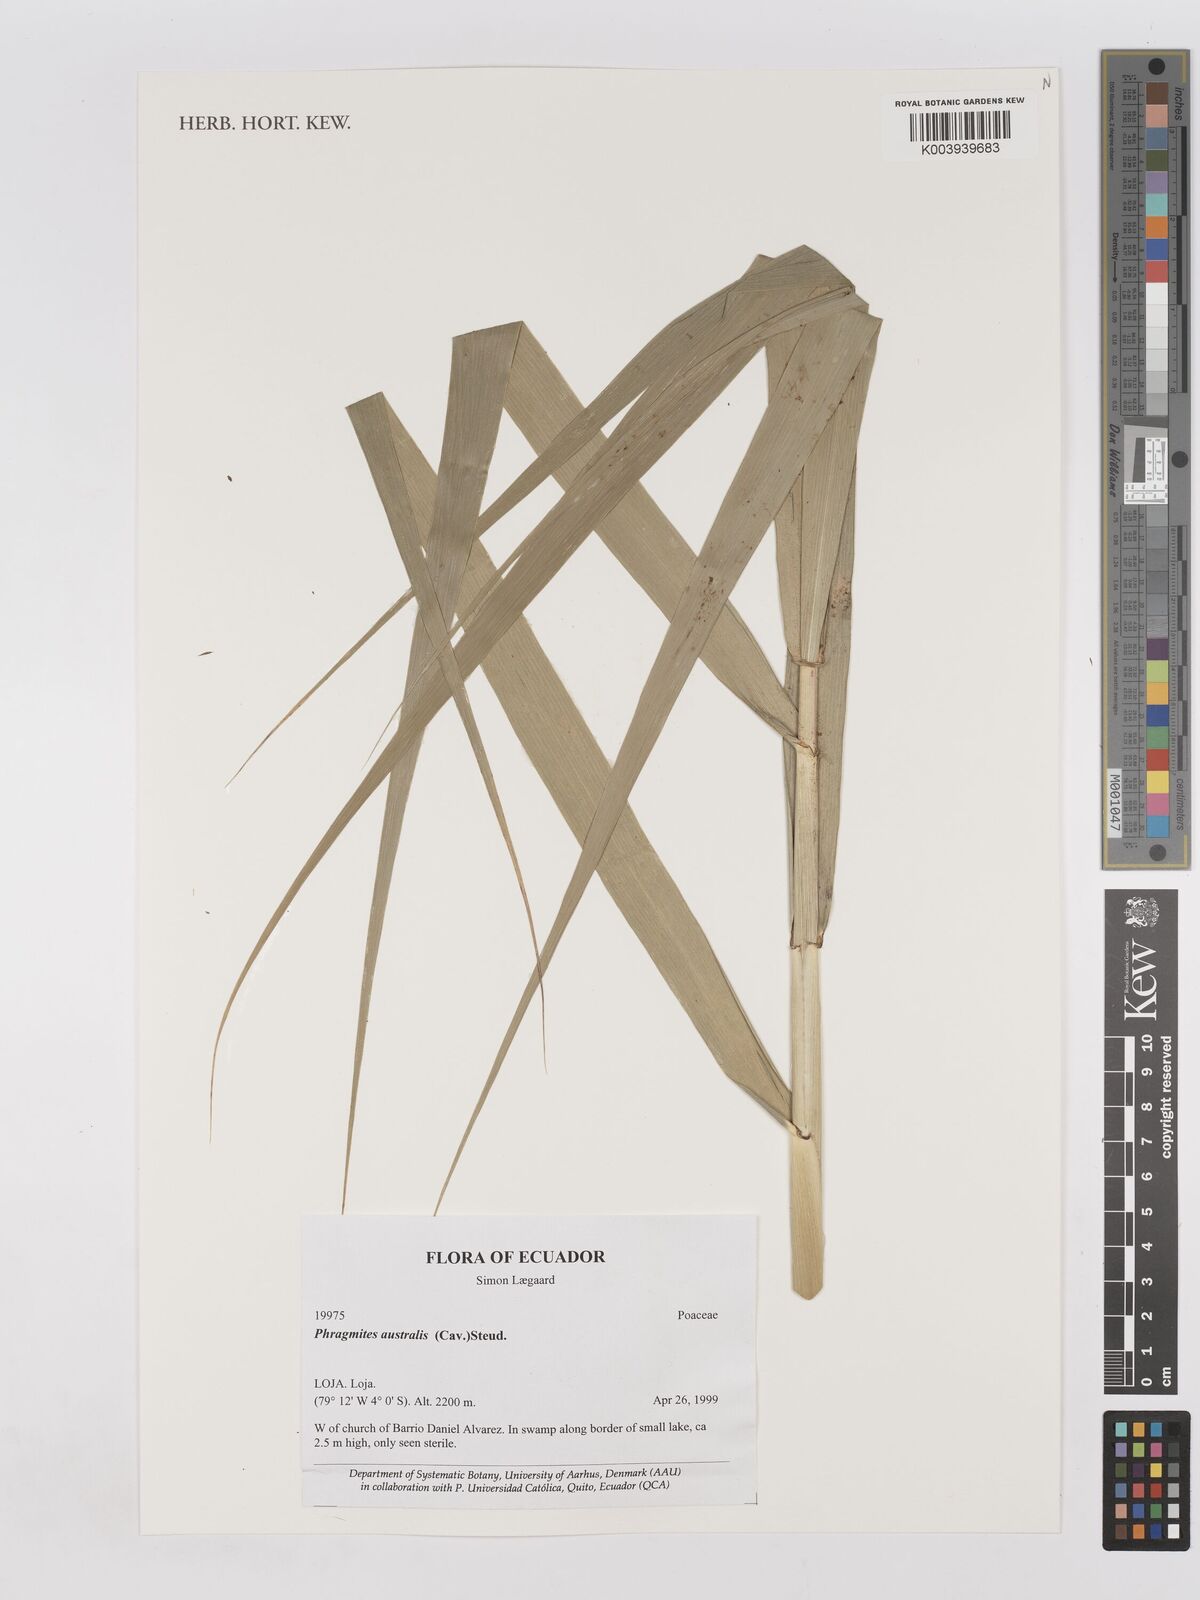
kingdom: Plantae
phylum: Tracheophyta
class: Liliopsida
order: Poales
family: Poaceae
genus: Phragmites
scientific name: Phragmites australis
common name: Common reed
